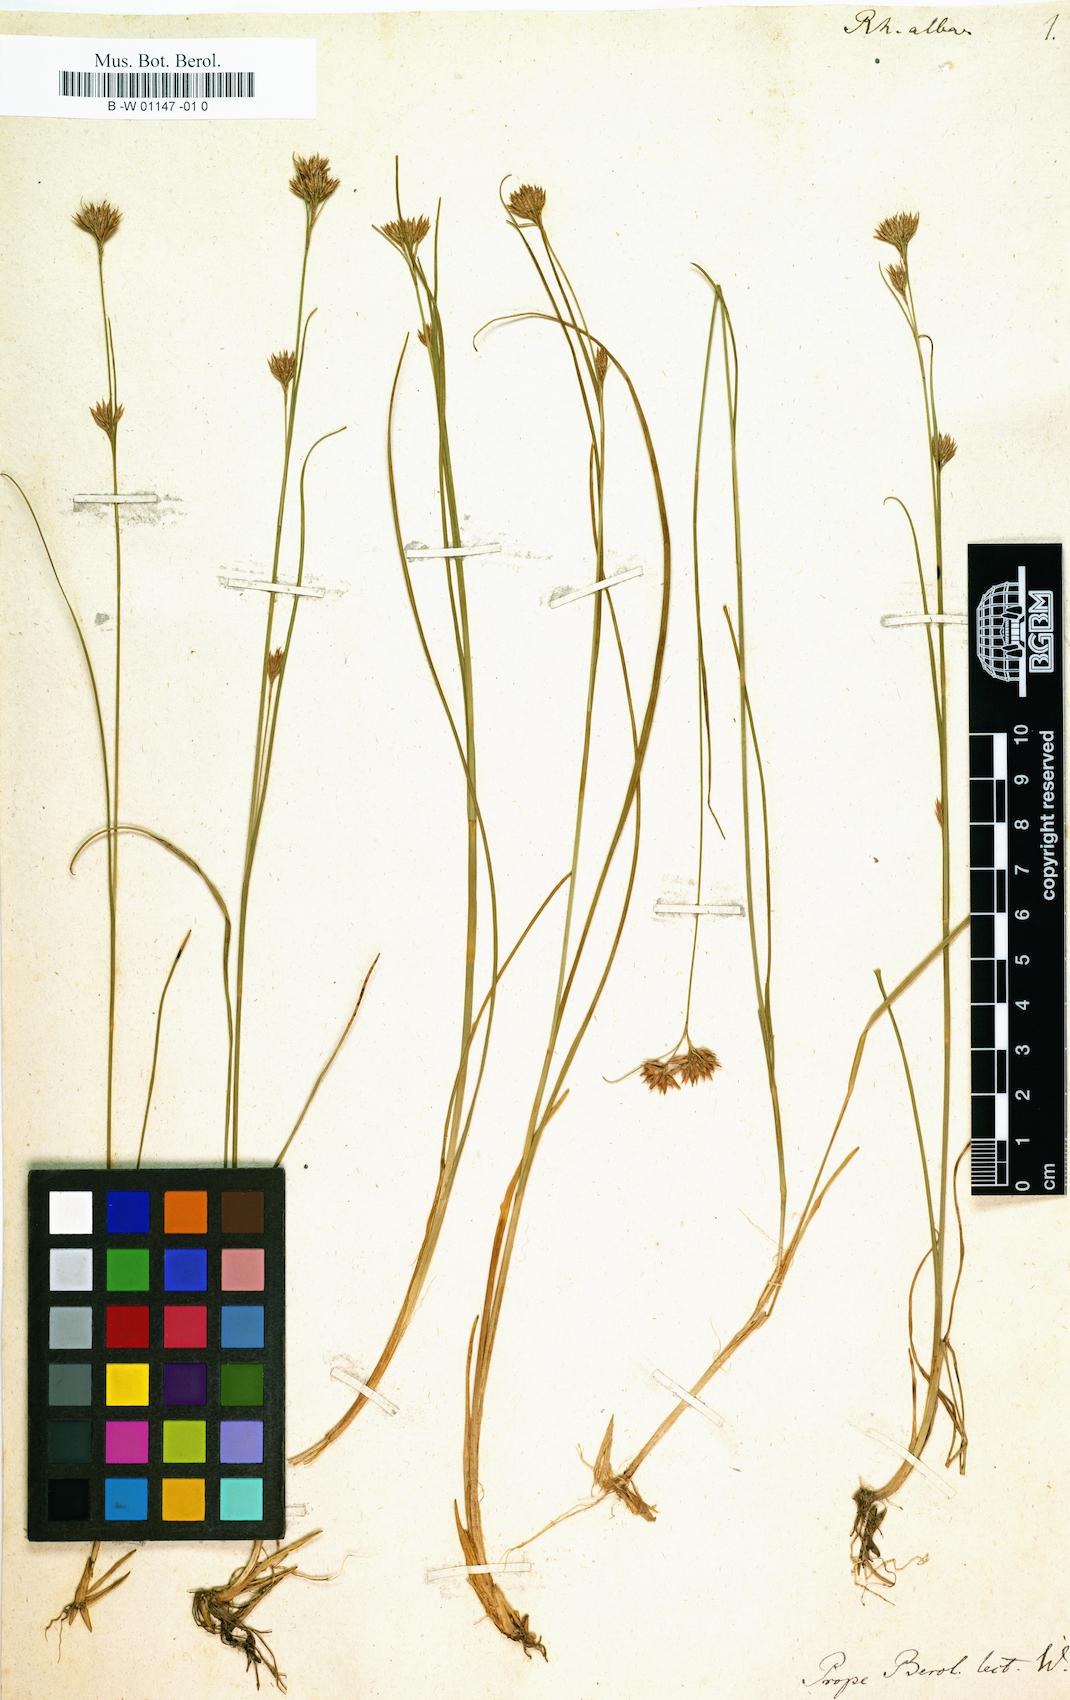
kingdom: Plantae
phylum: Tracheophyta
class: Liliopsida
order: Poales
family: Cyperaceae
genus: Rhynchospora
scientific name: Rhynchospora alba
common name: White beak-sedge
